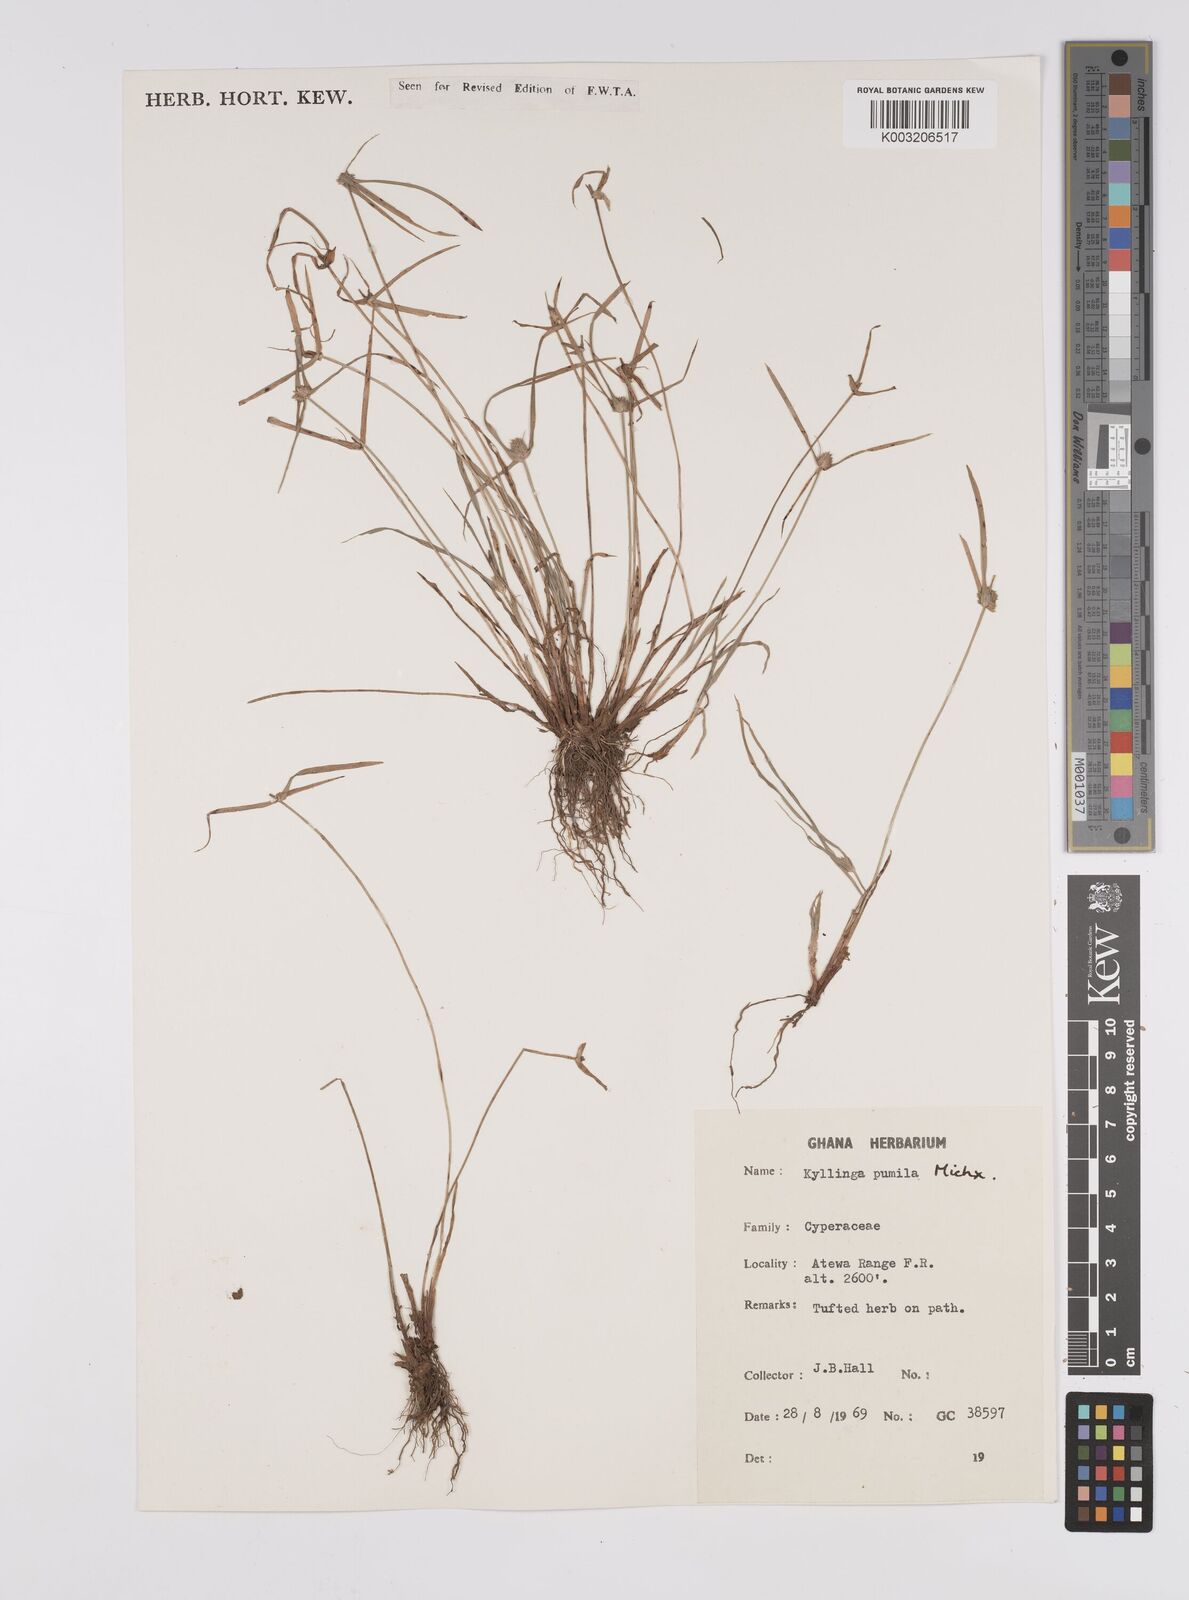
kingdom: Plantae
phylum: Tracheophyta
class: Liliopsida
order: Poales
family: Cyperaceae
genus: Cyperus
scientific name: Cyperus
